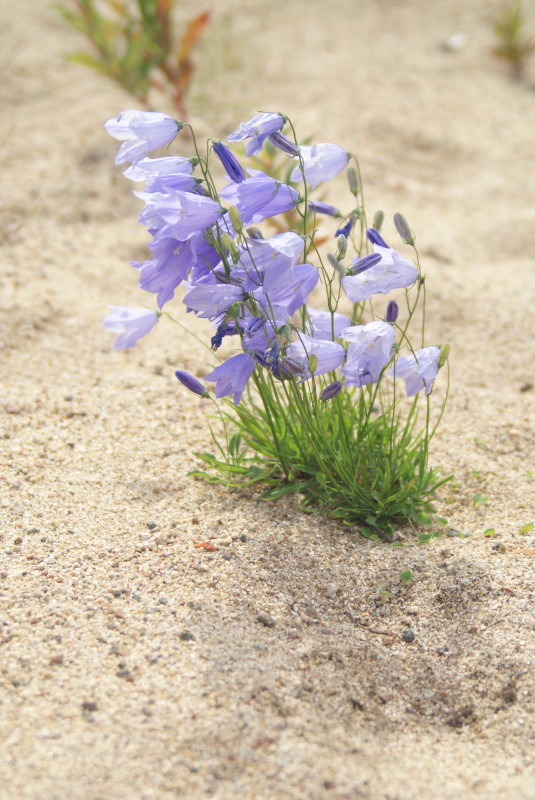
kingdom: Plantae
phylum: Tracheophyta
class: Magnoliopsida
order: Asterales
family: Campanulaceae
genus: Campanula
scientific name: Campanula rotundifolia
